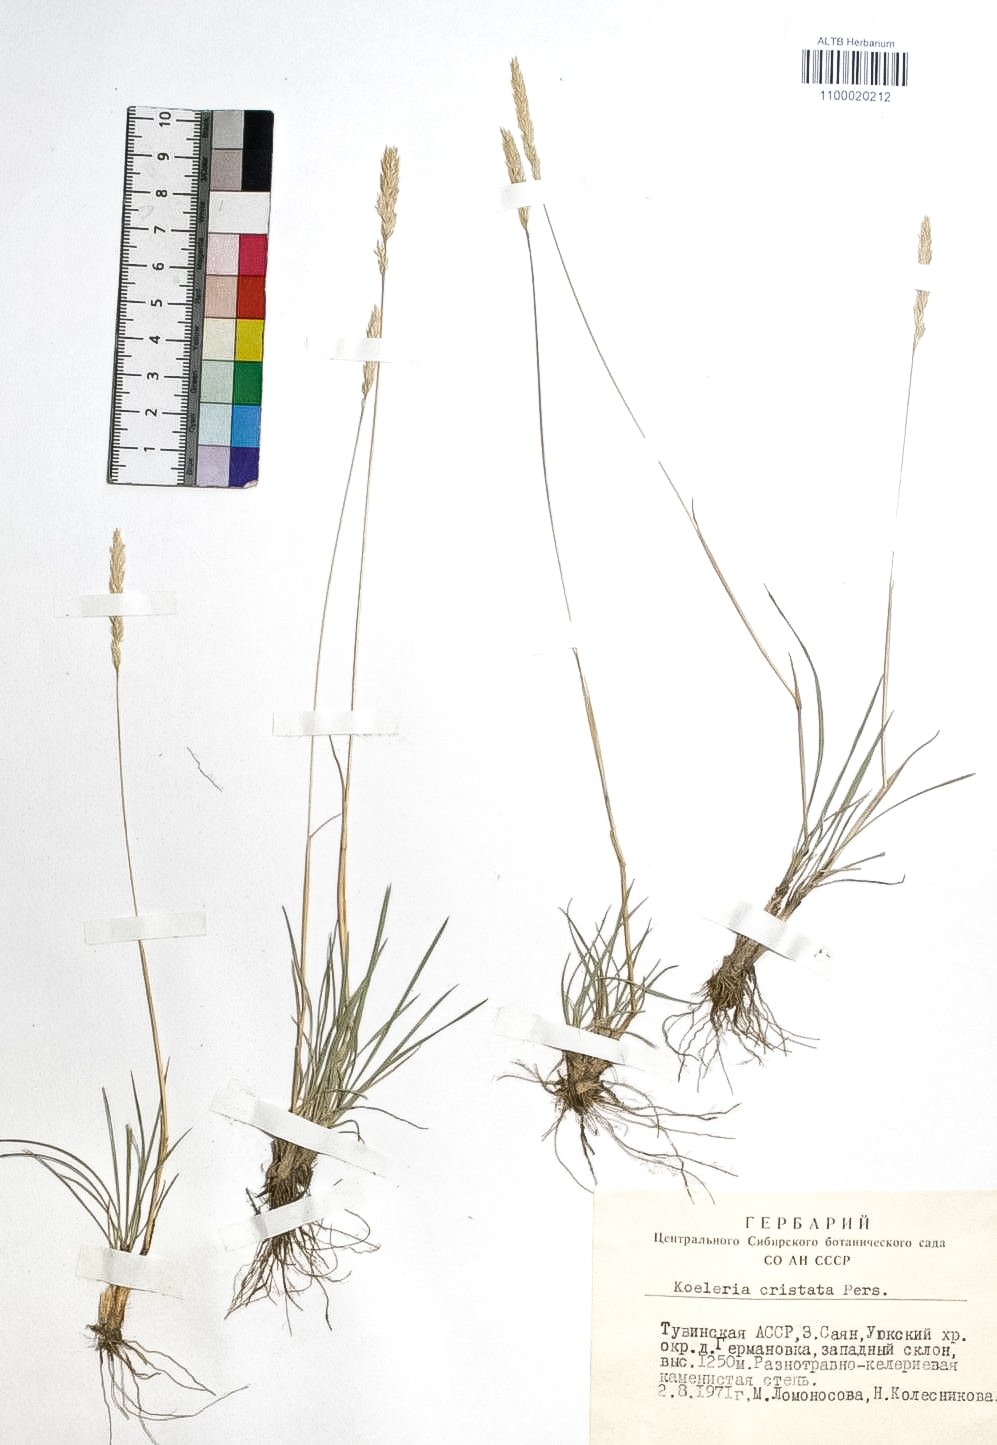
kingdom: Plantae
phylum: Tracheophyta
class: Liliopsida
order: Poales
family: Poaceae
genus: Koeleria
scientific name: Koeleria pyramidata
